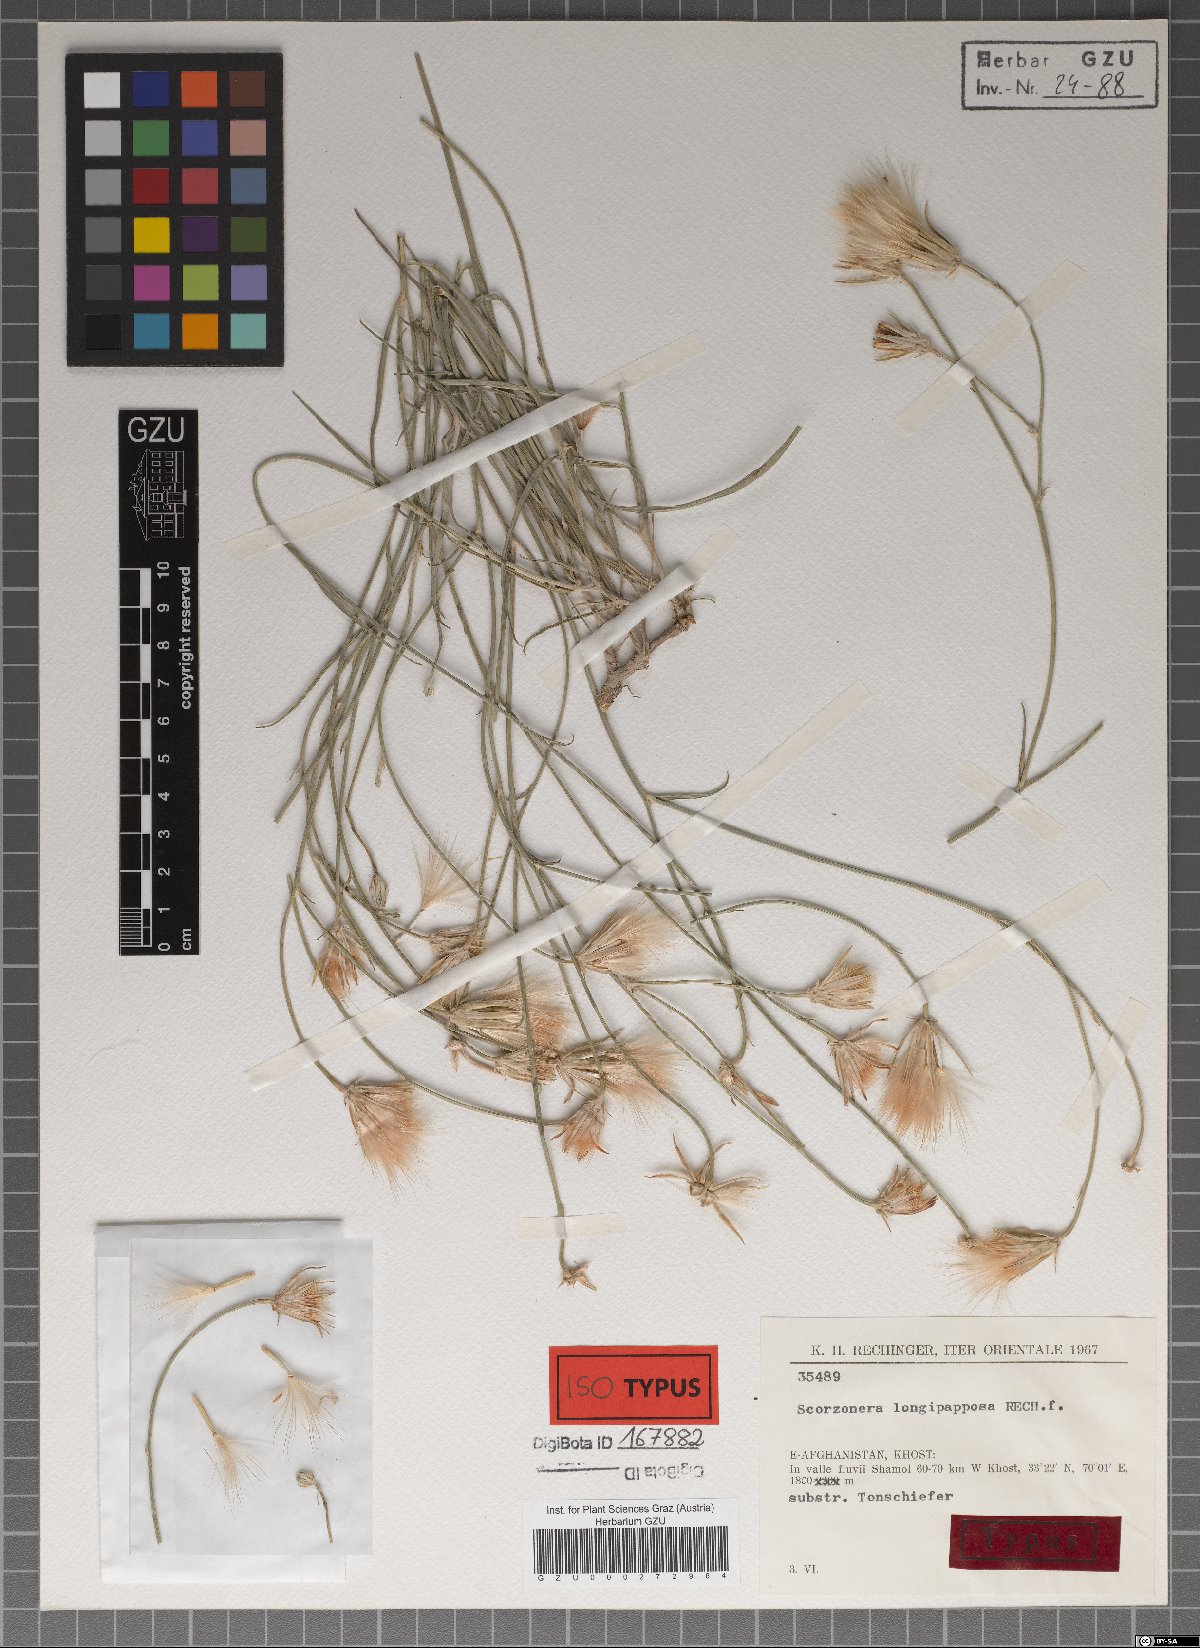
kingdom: Plantae
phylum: Tracheophyta
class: Magnoliopsida
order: Asterales
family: Asteraceae
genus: Ramaliella
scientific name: Ramaliella longipapposa
